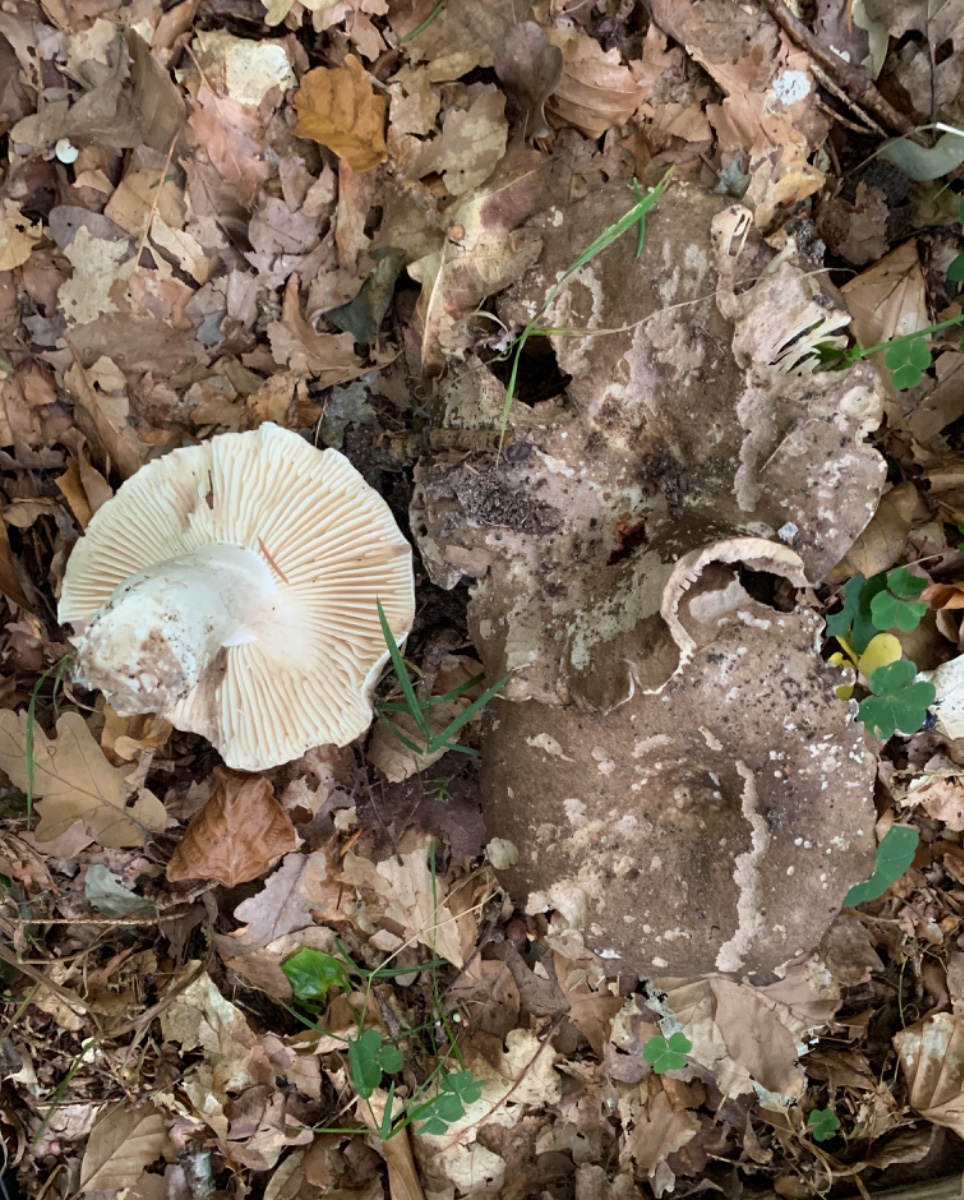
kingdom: Fungi
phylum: Basidiomycota
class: Agaricomycetes
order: Russulales
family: Russulaceae
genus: Russula
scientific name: Russula adusta
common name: sværtende skørhat
